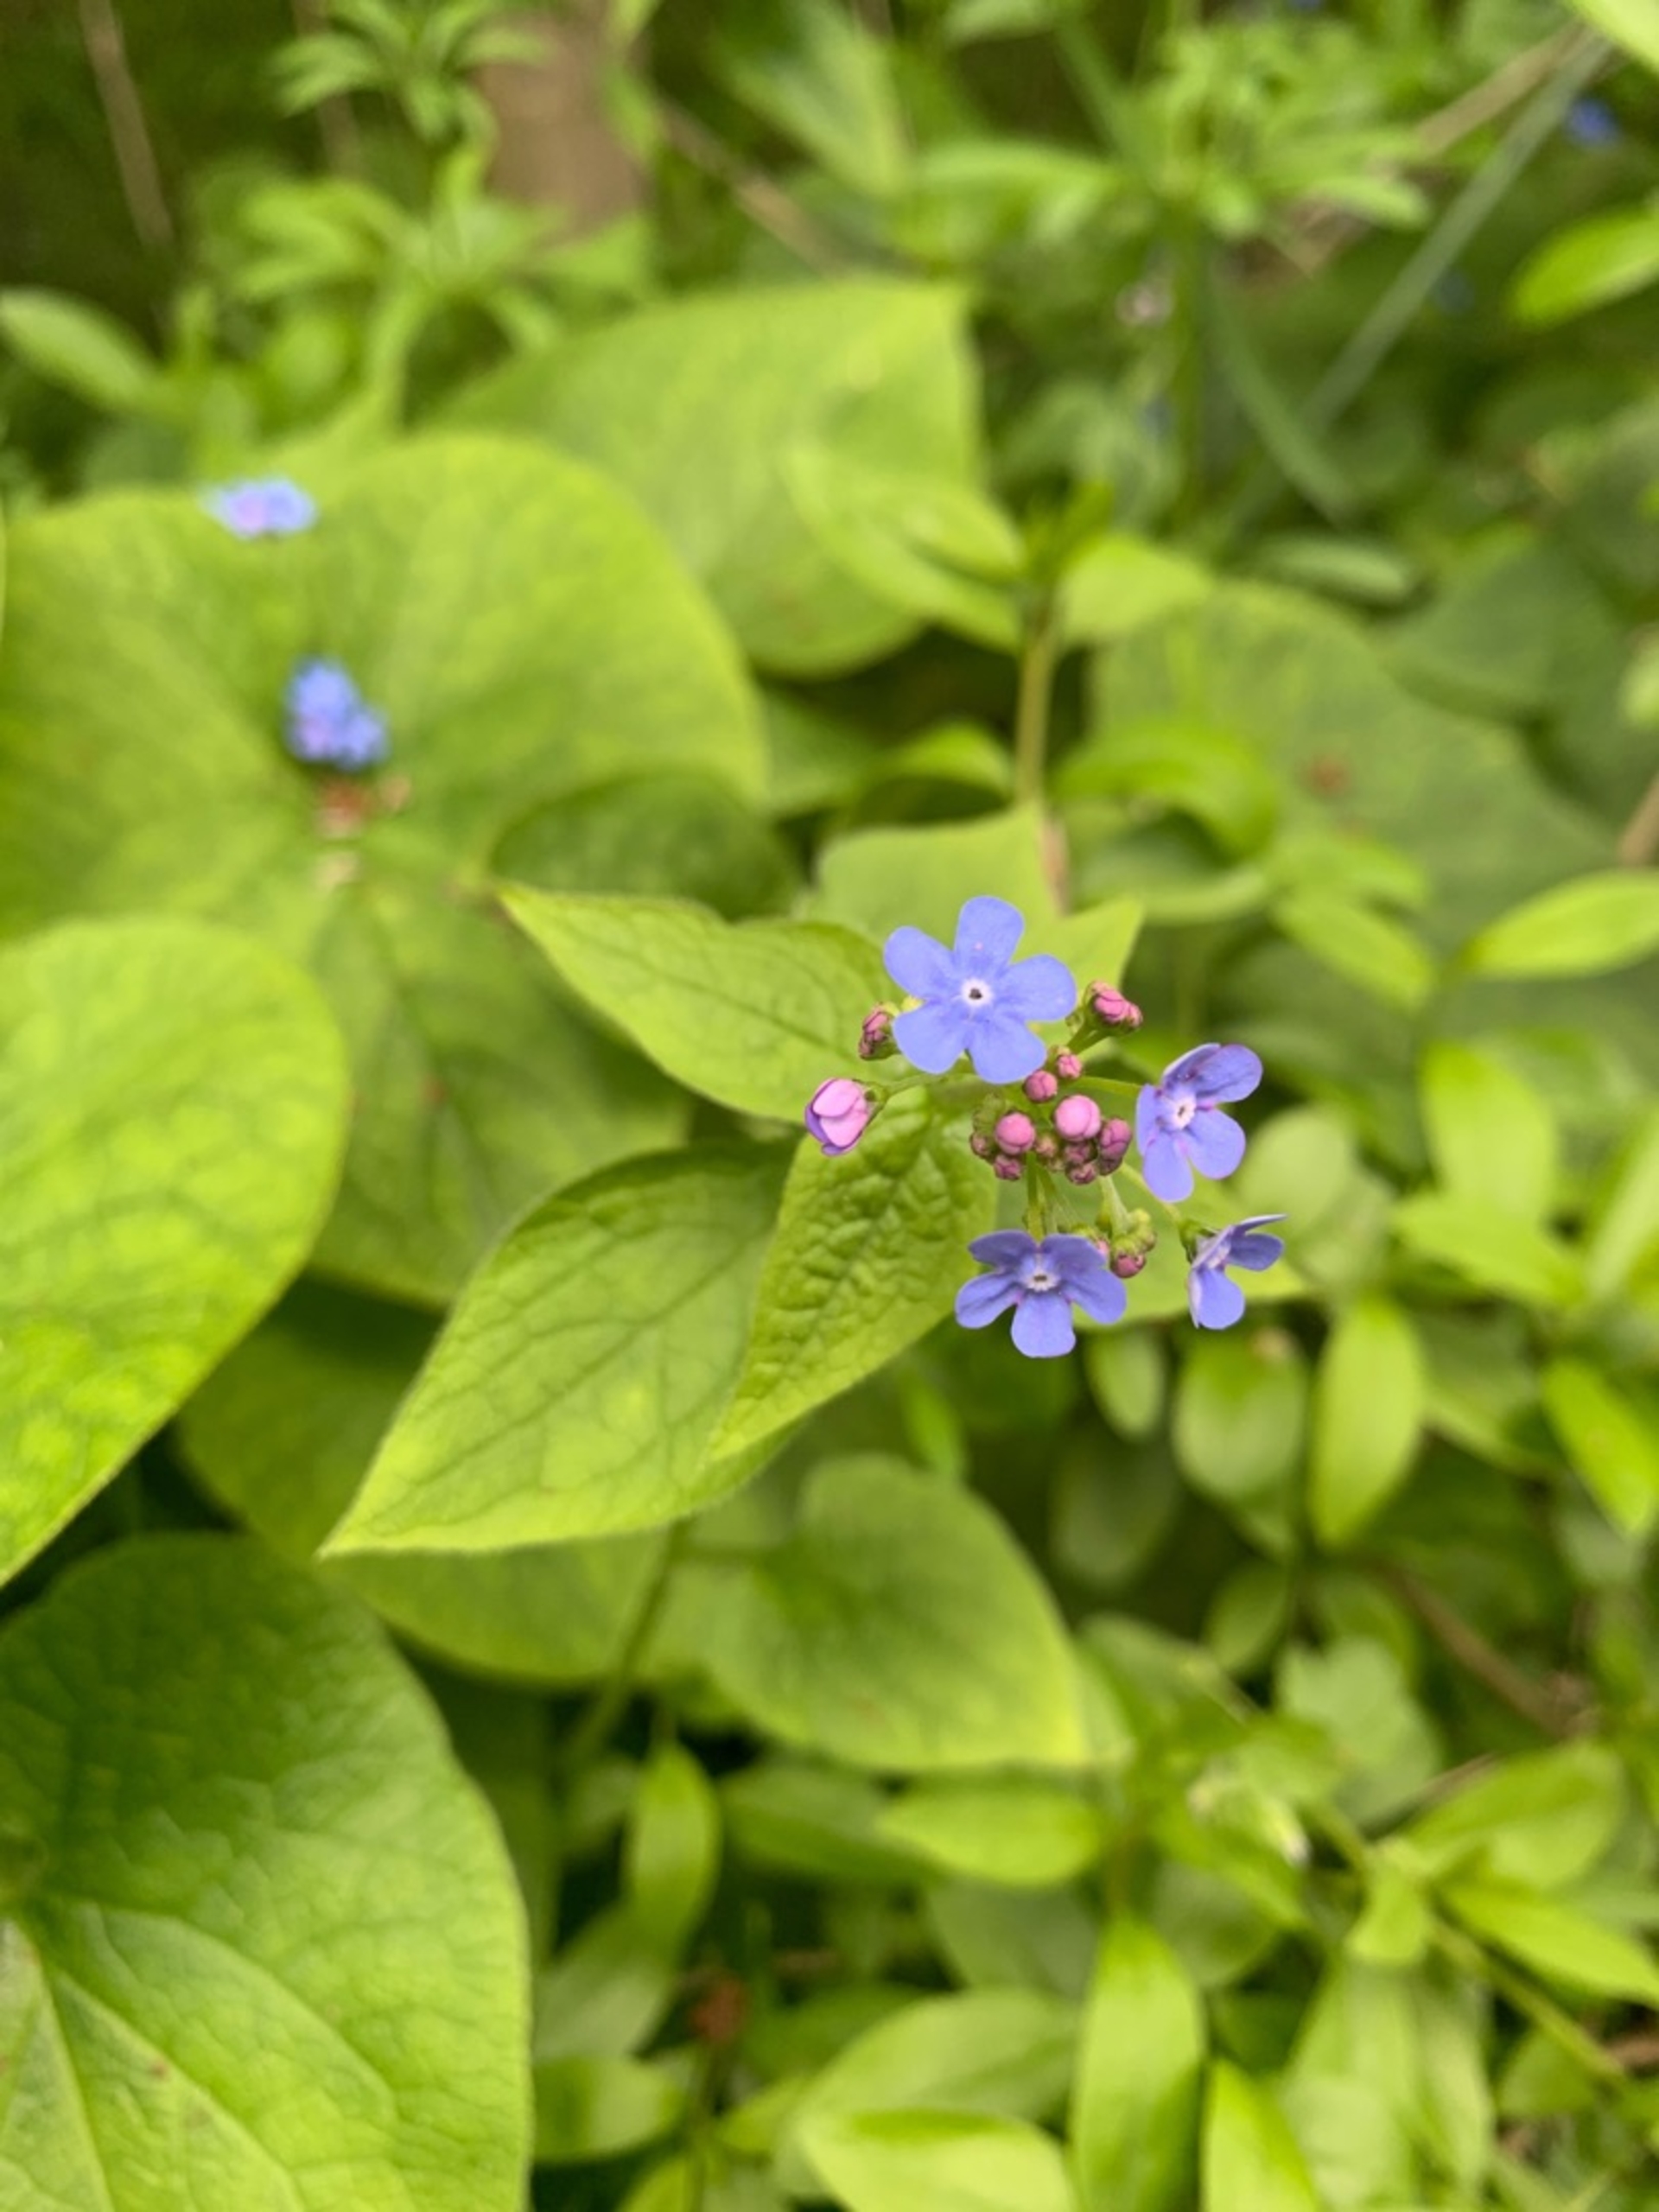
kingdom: Plantae
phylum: Tracheophyta
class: Magnoliopsida
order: Boraginales
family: Boraginaceae
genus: Brunnera
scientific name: Brunnera macrophylla
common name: Kærmindesøster
